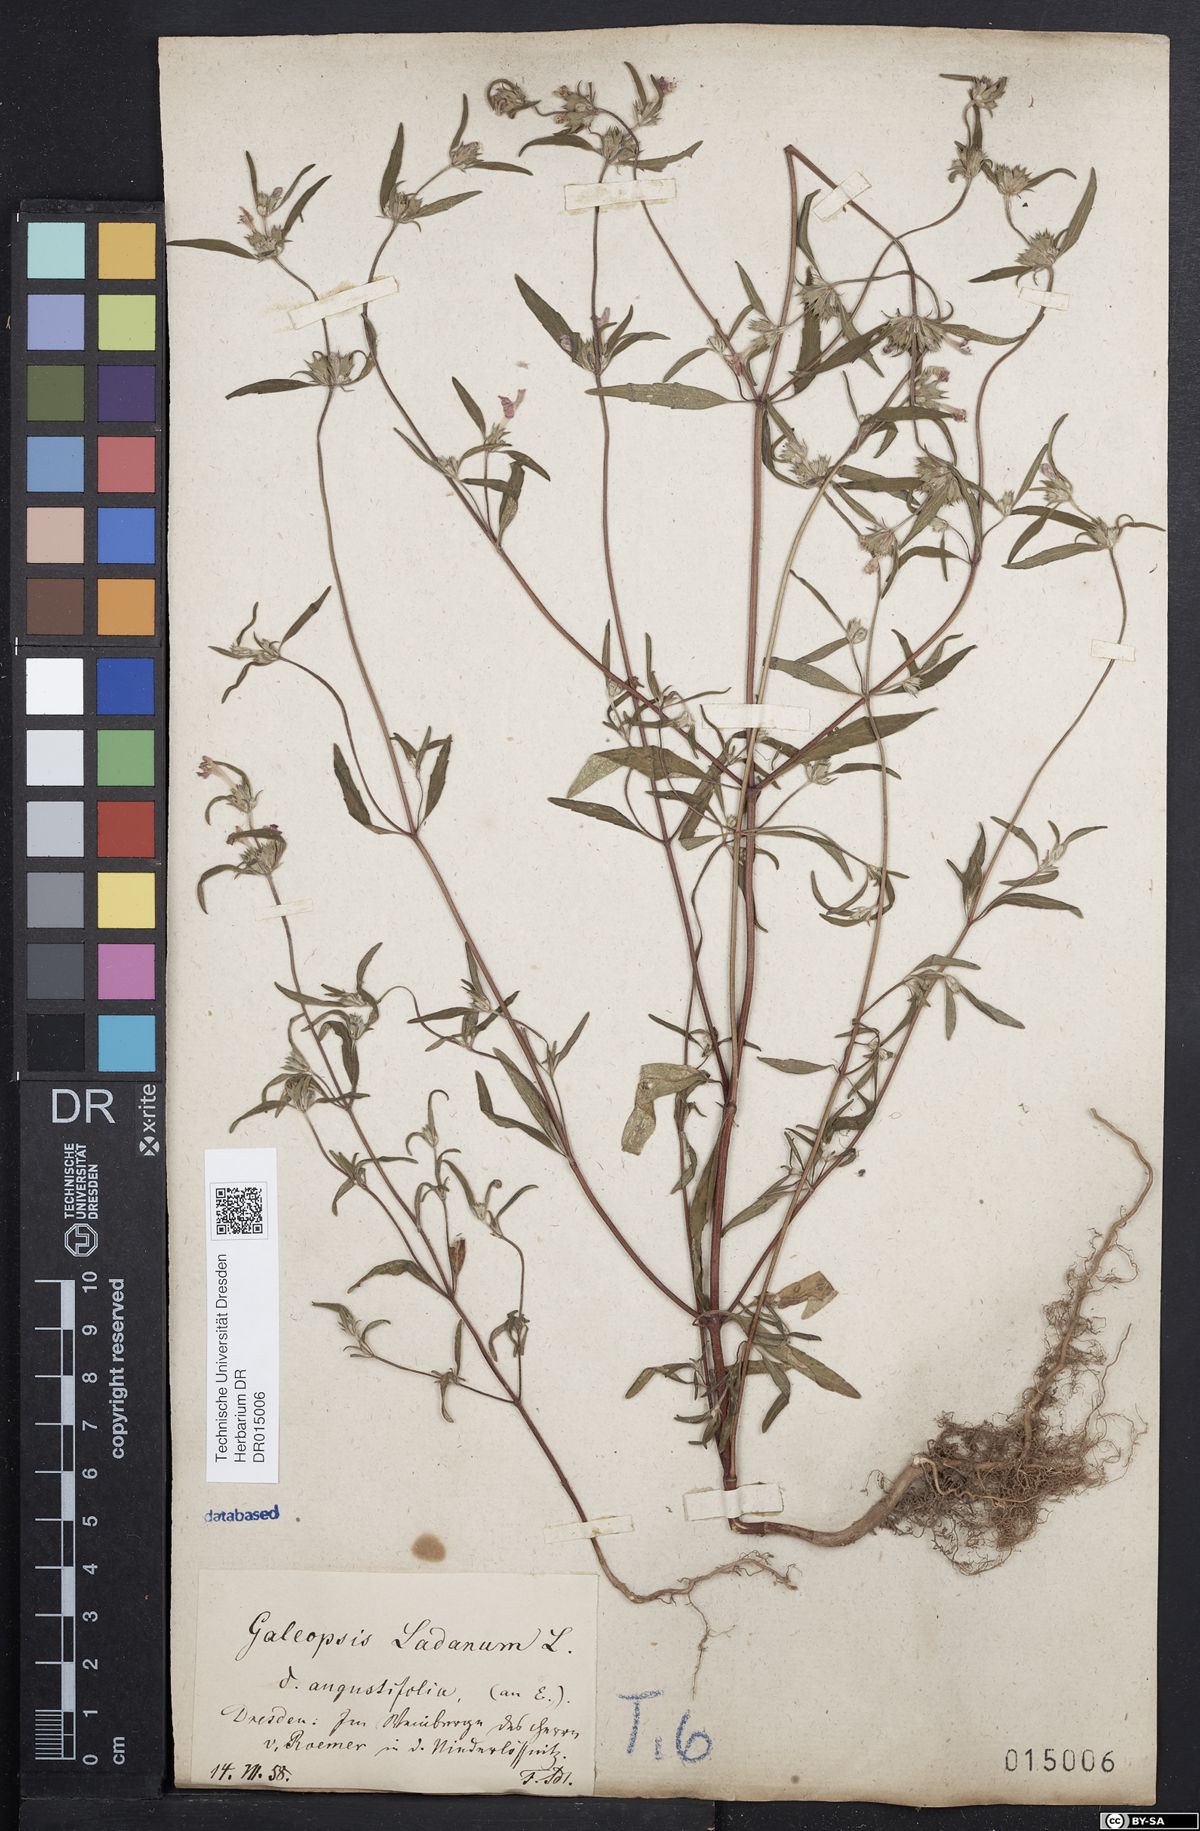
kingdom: Plantae
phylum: Tracheophyta
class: Magnoliopsida
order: Lamiales
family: Lamiaceae
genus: Galeopsis
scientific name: Galeopsis angustifolia
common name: Red hemp-nettle
